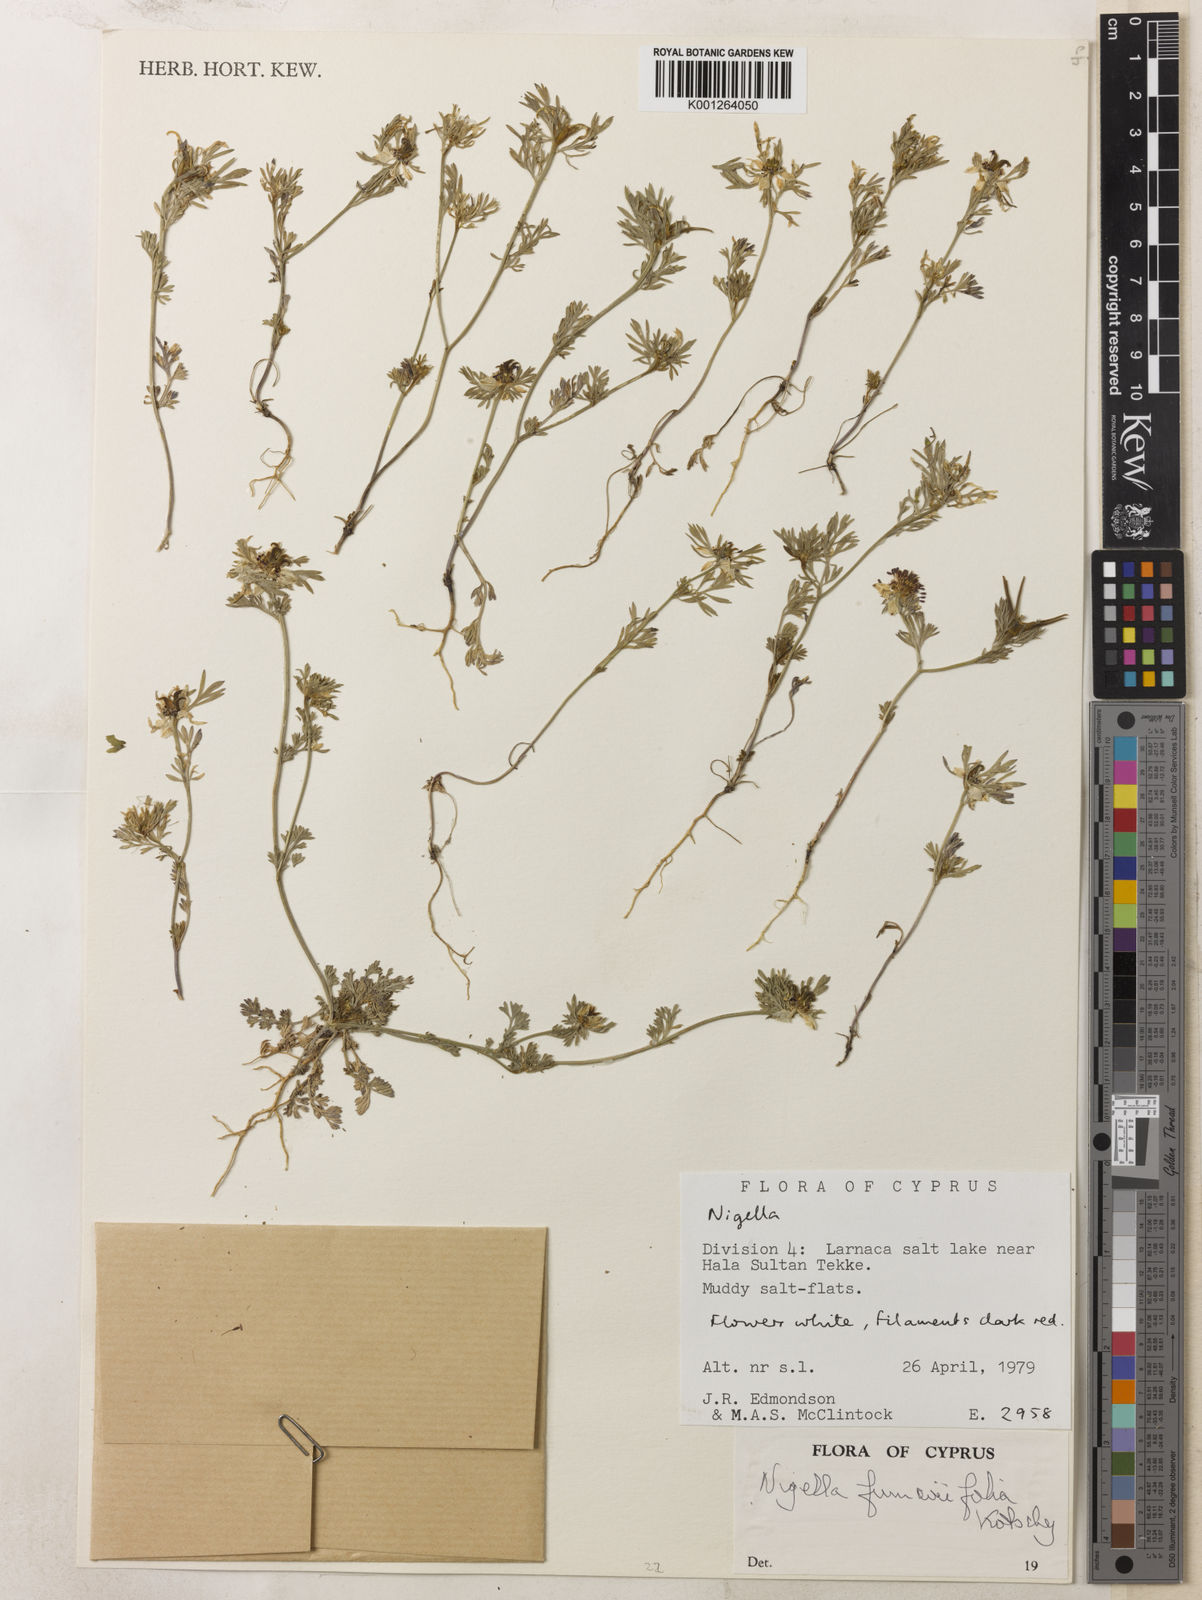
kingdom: Plantae
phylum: Tracheophyta
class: Magnoliopsida
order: Ranunculales
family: Ranunculaceae
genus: Nigella
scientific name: Nigella
